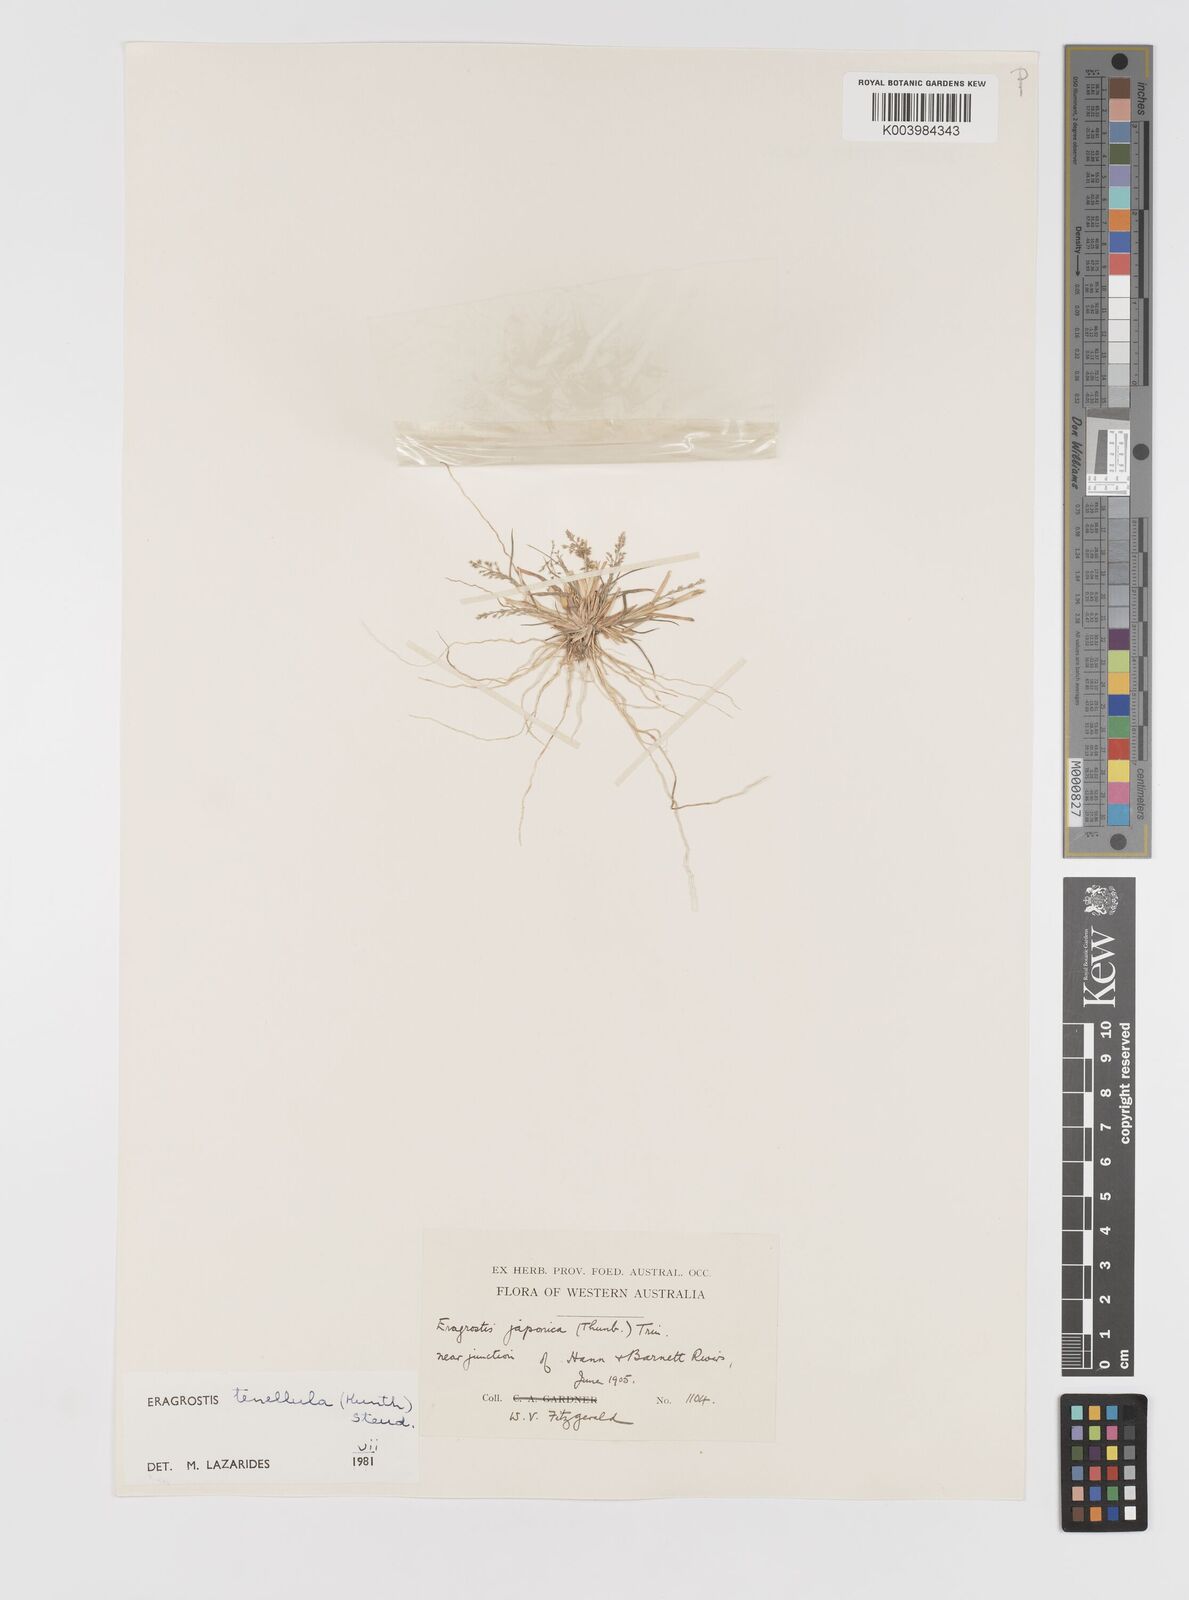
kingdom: Plantae
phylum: Tracheophyta
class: Liliopsida
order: Poales
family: Poaceae
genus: Eragrostis
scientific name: Eragrostis tenellula
